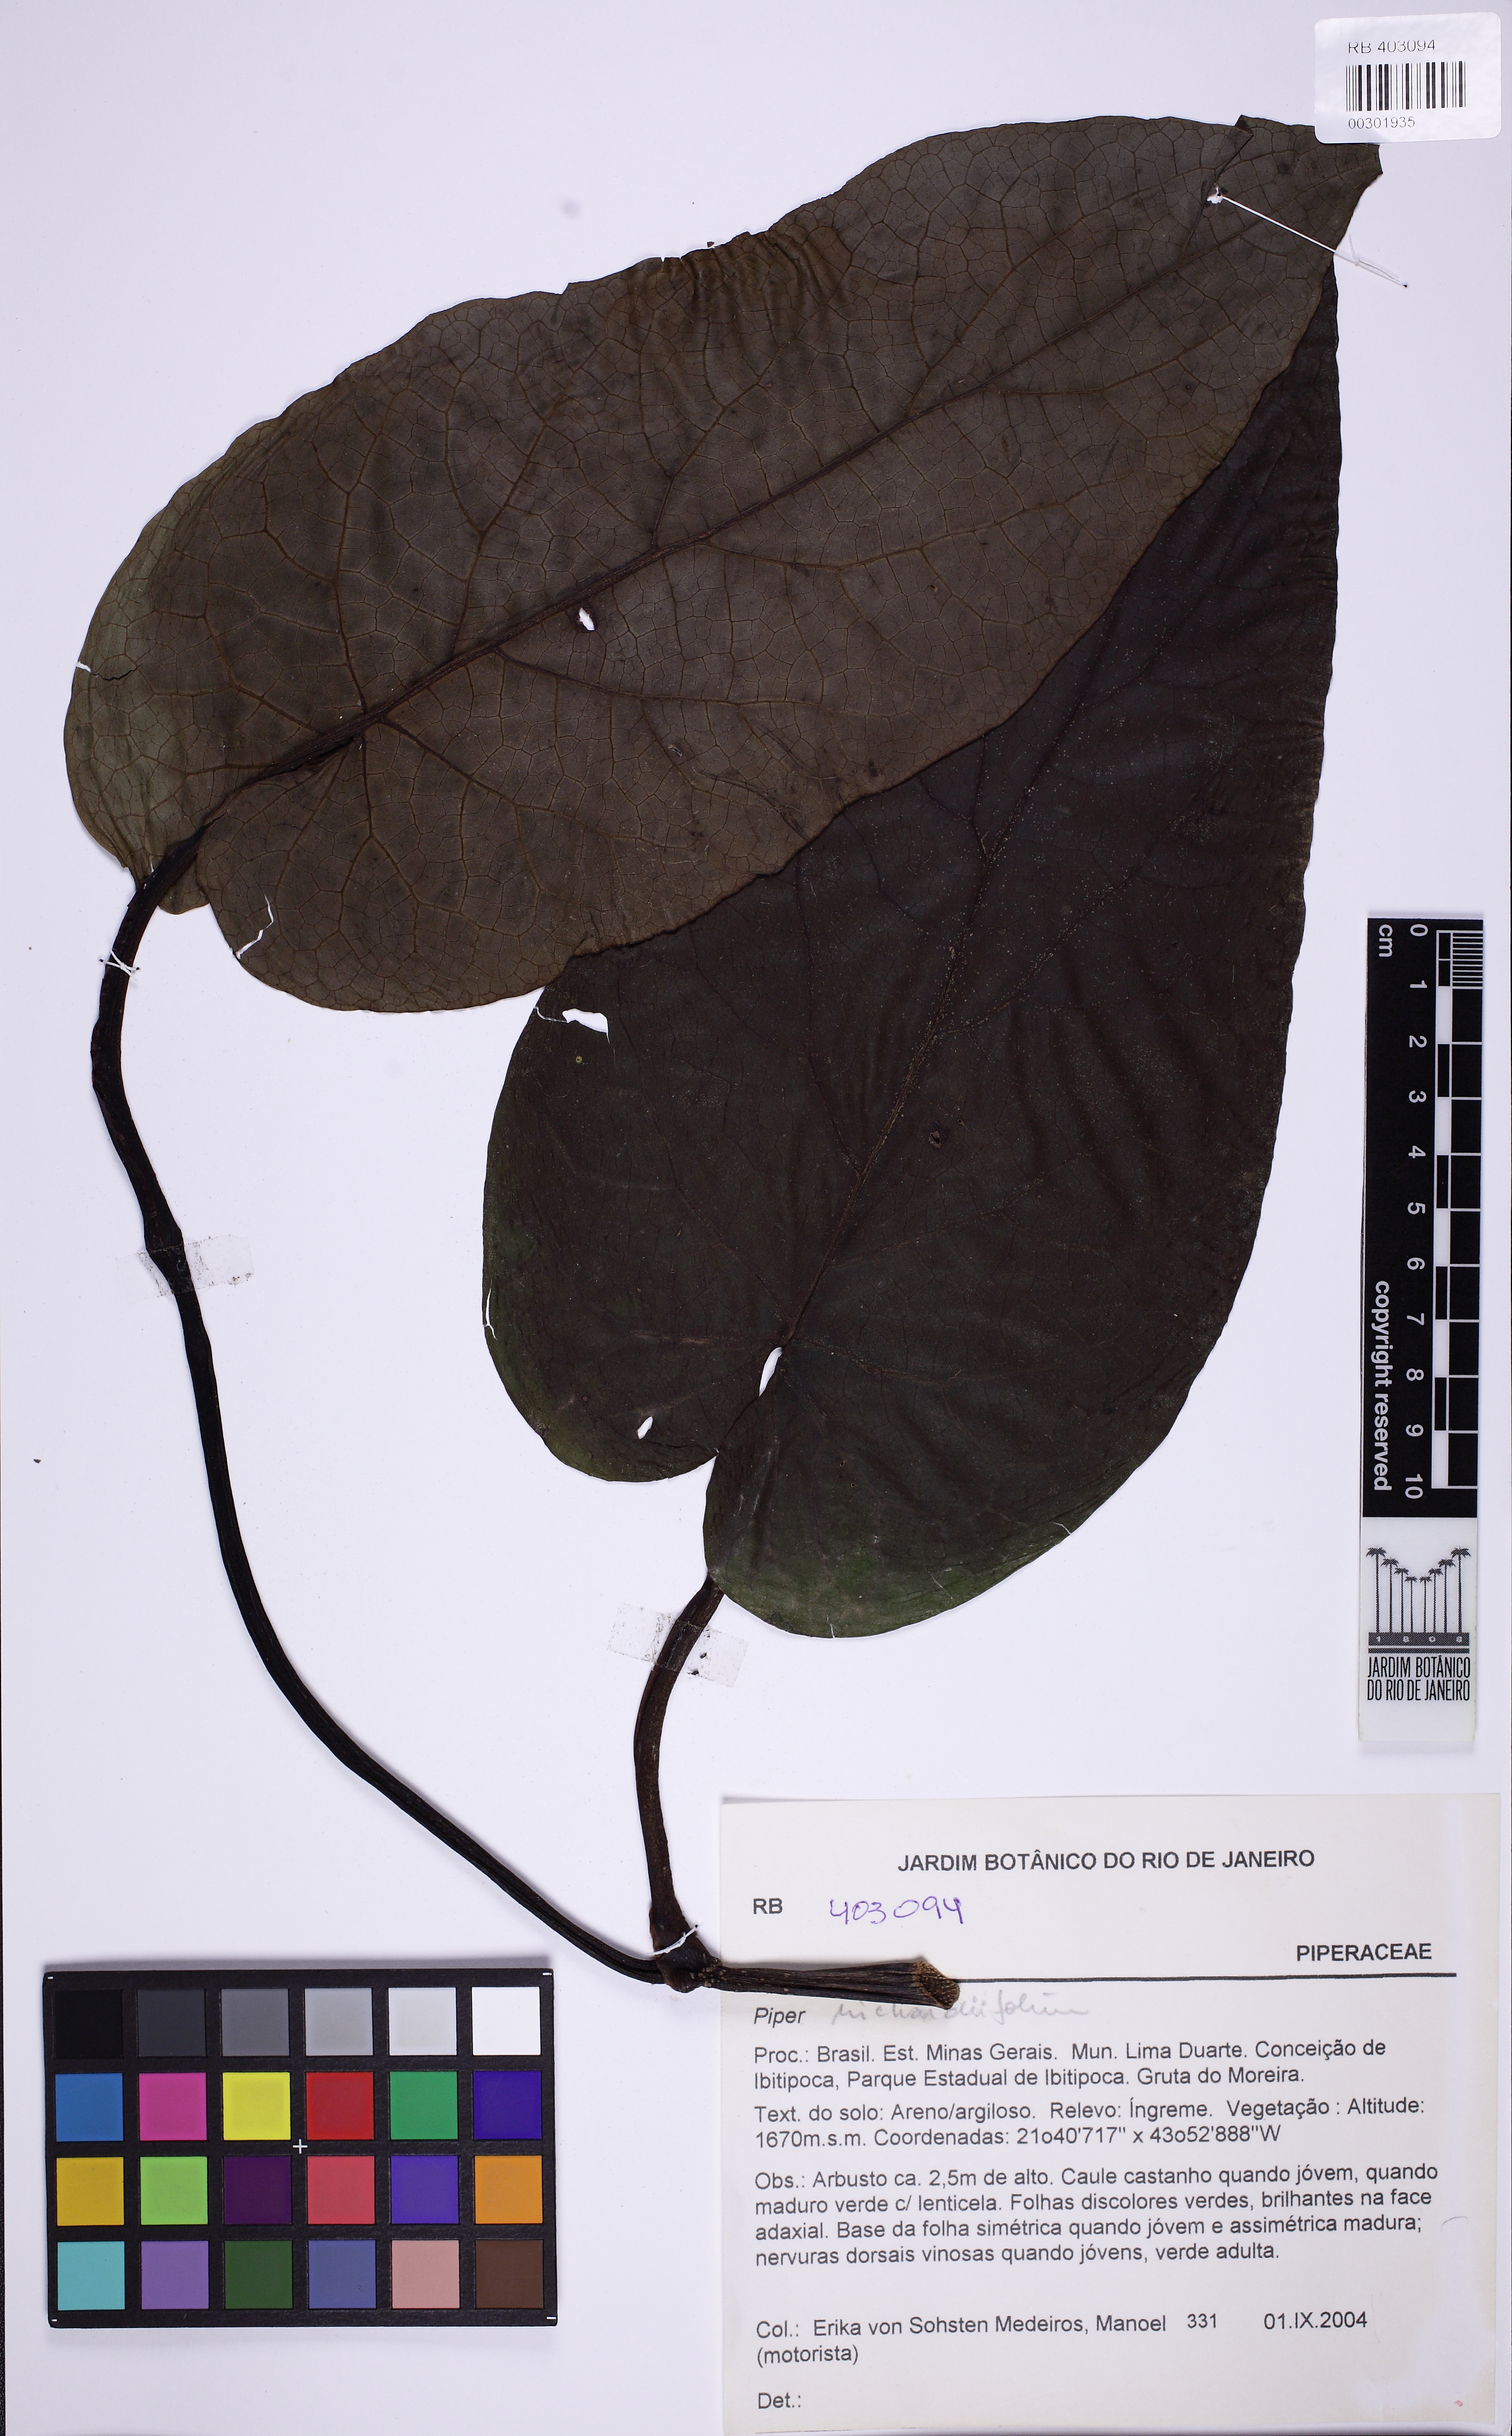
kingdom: Plantae
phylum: Tracheophyta
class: Magnoliopsida
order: Piperales
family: Piperaceae
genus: Piper
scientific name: Piper richardiifolium
